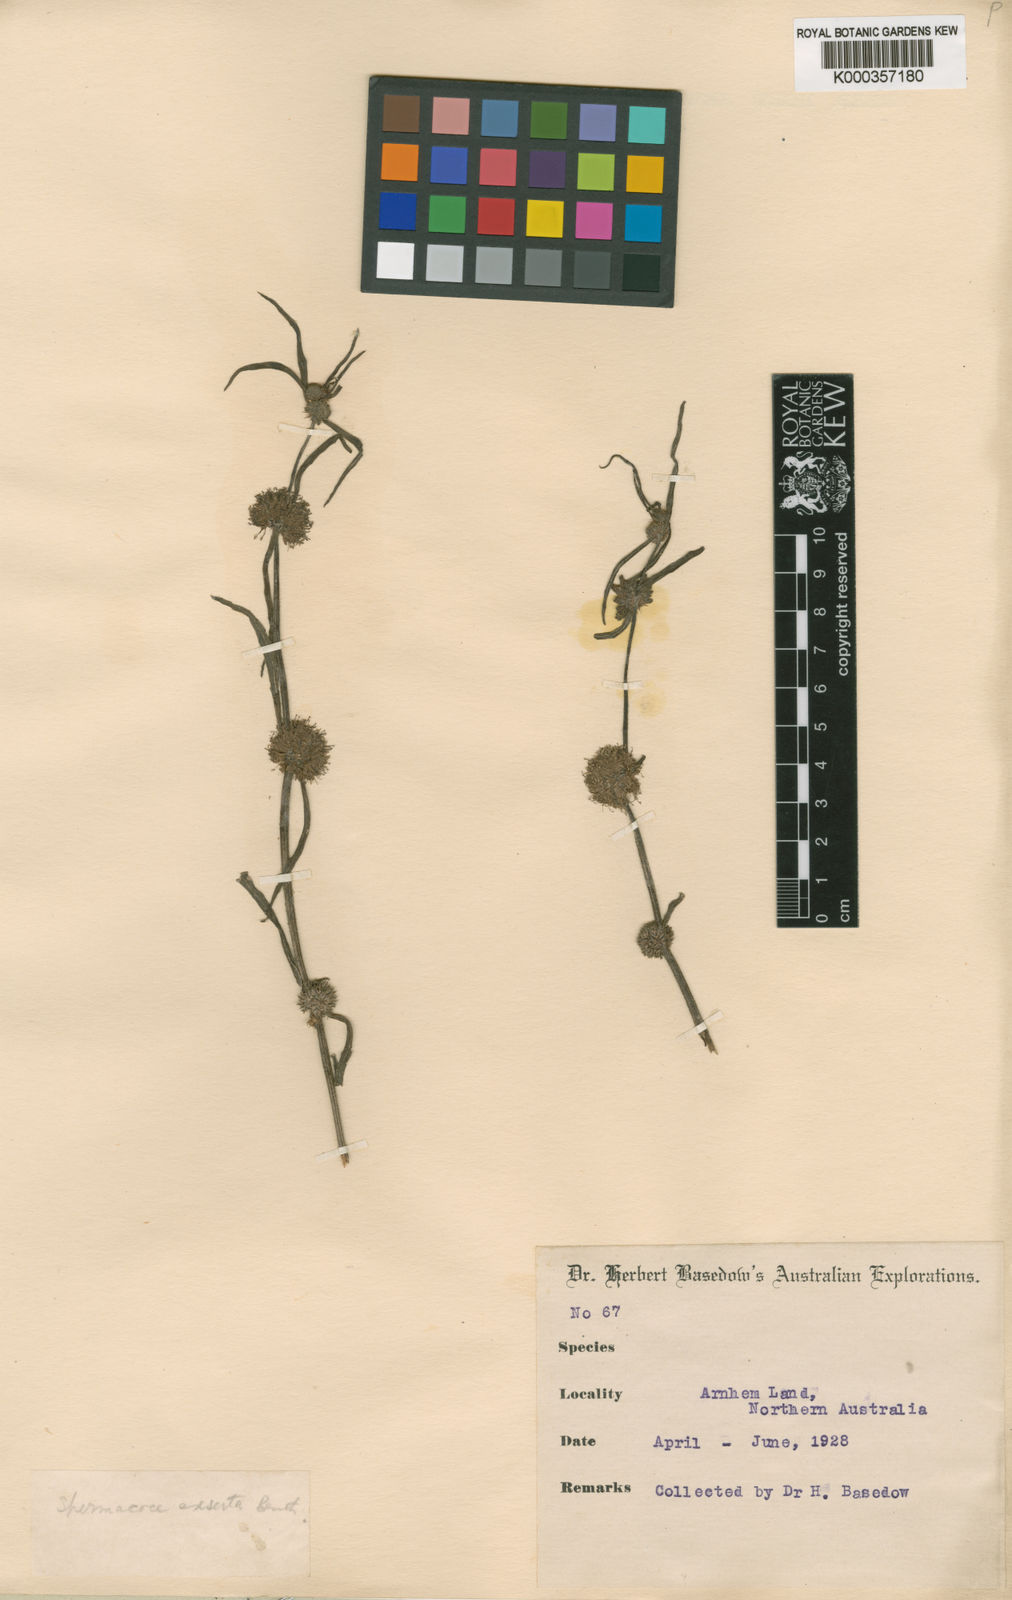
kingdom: Plantae
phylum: Tracheophyta
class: Magnoliopsida
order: Gentianales
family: Rubiaceae
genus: Spermacoce
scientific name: Spermacoce stenophylla
